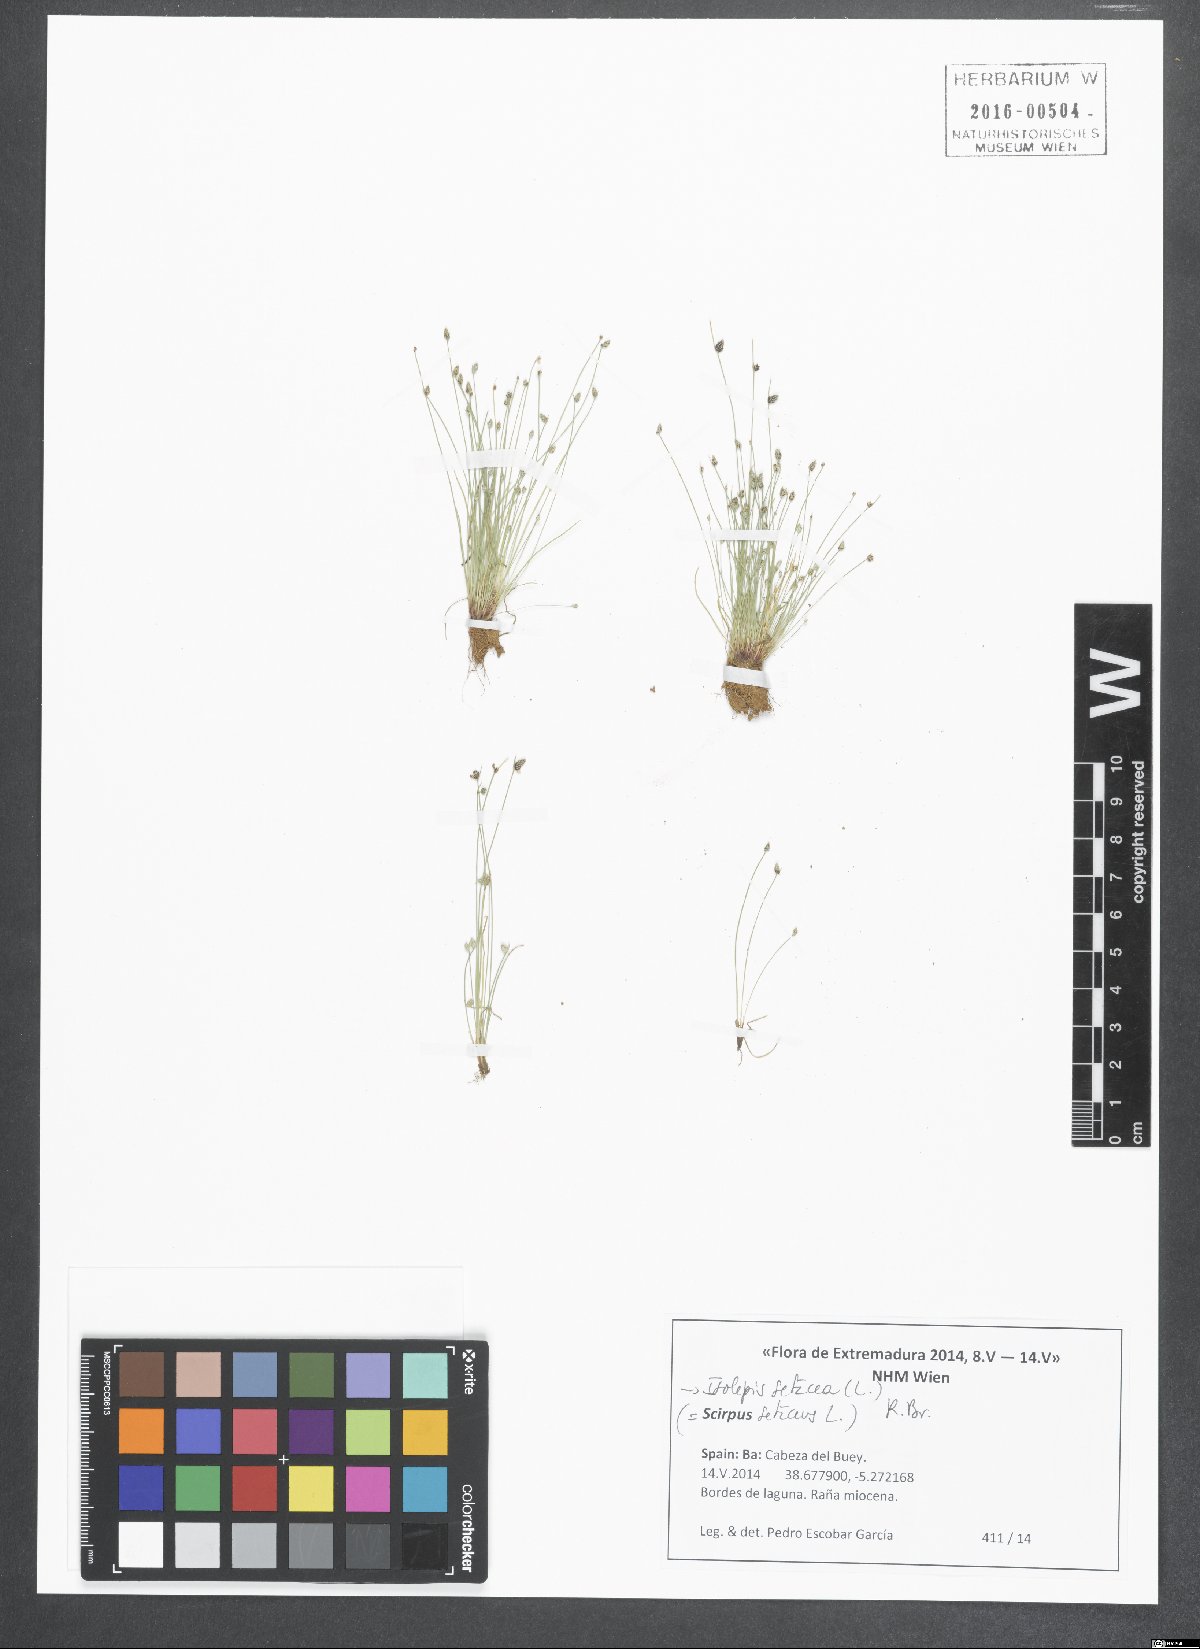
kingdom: Plantae
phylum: Tracheophyta
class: Liliopsida
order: Poales
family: Cyperaceae
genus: Isolepis
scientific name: Isolepis setacea
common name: Bristle club-rush
